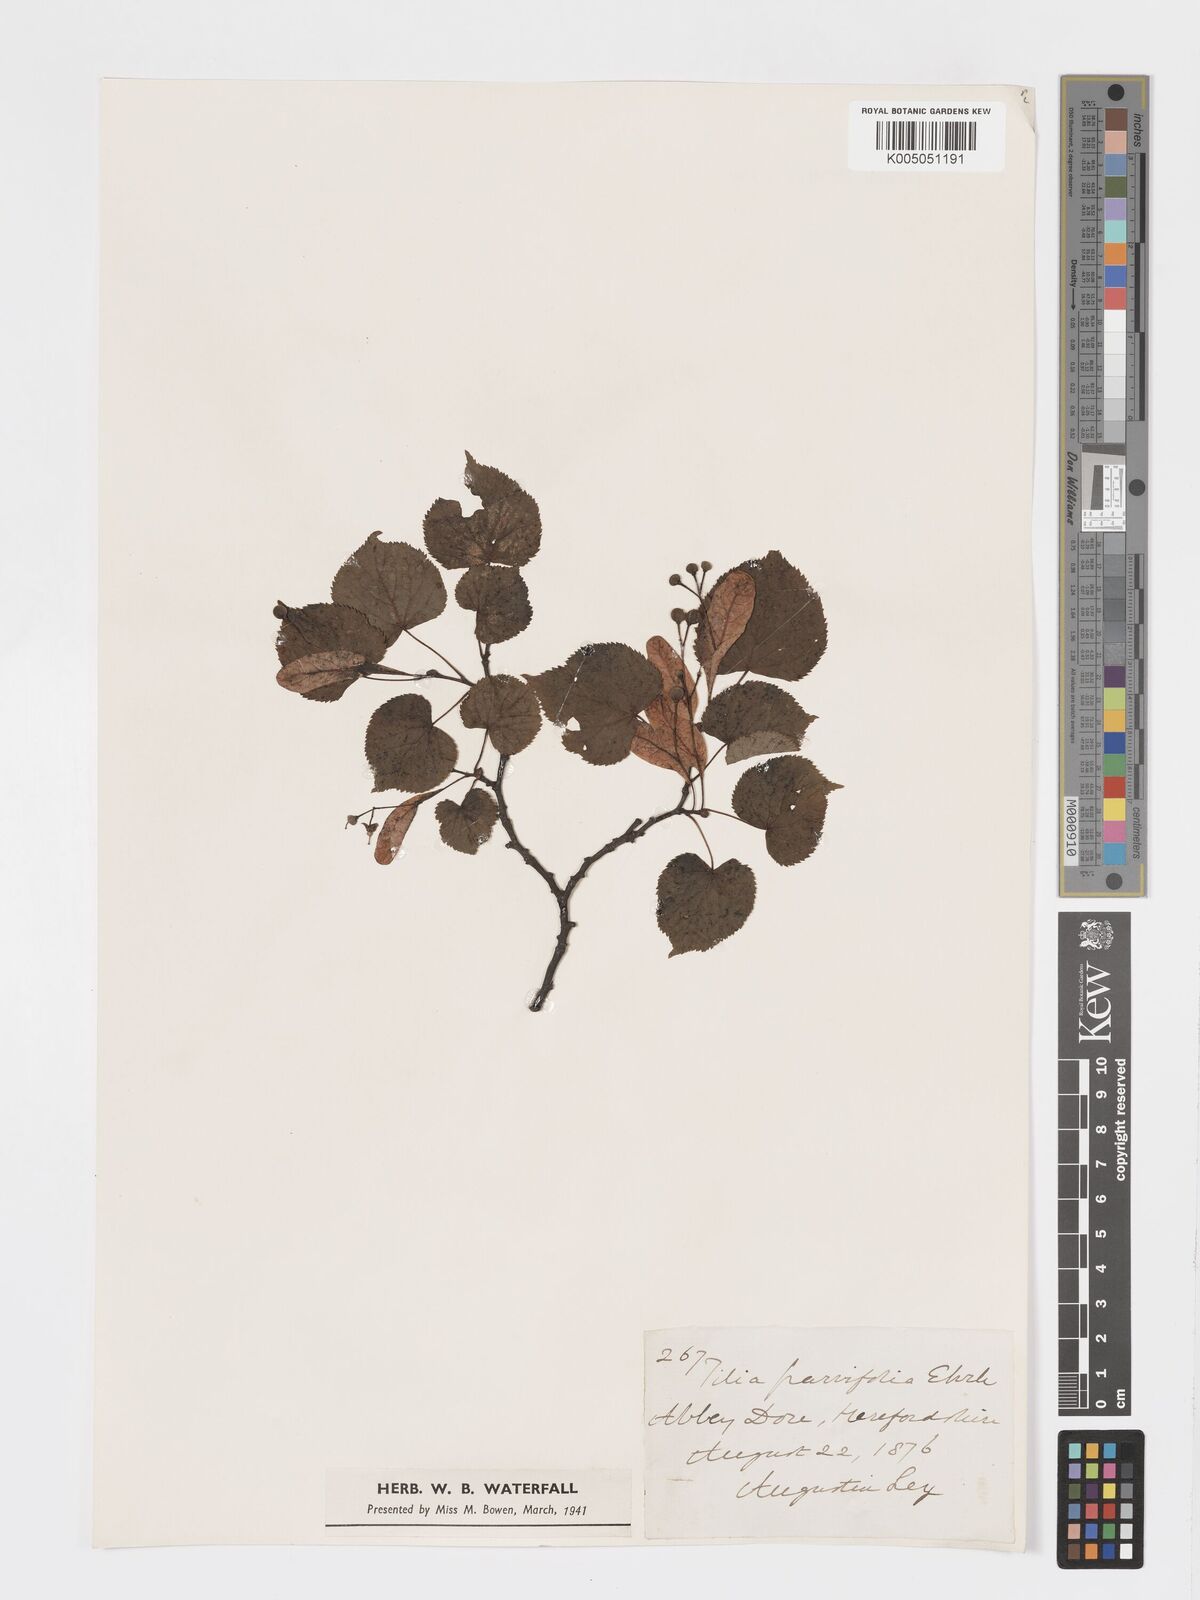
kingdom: Plantae
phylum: Tracheophyta
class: Magnoliopsida
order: Malvales
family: Malvaceae
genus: Tilia
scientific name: Tilia
